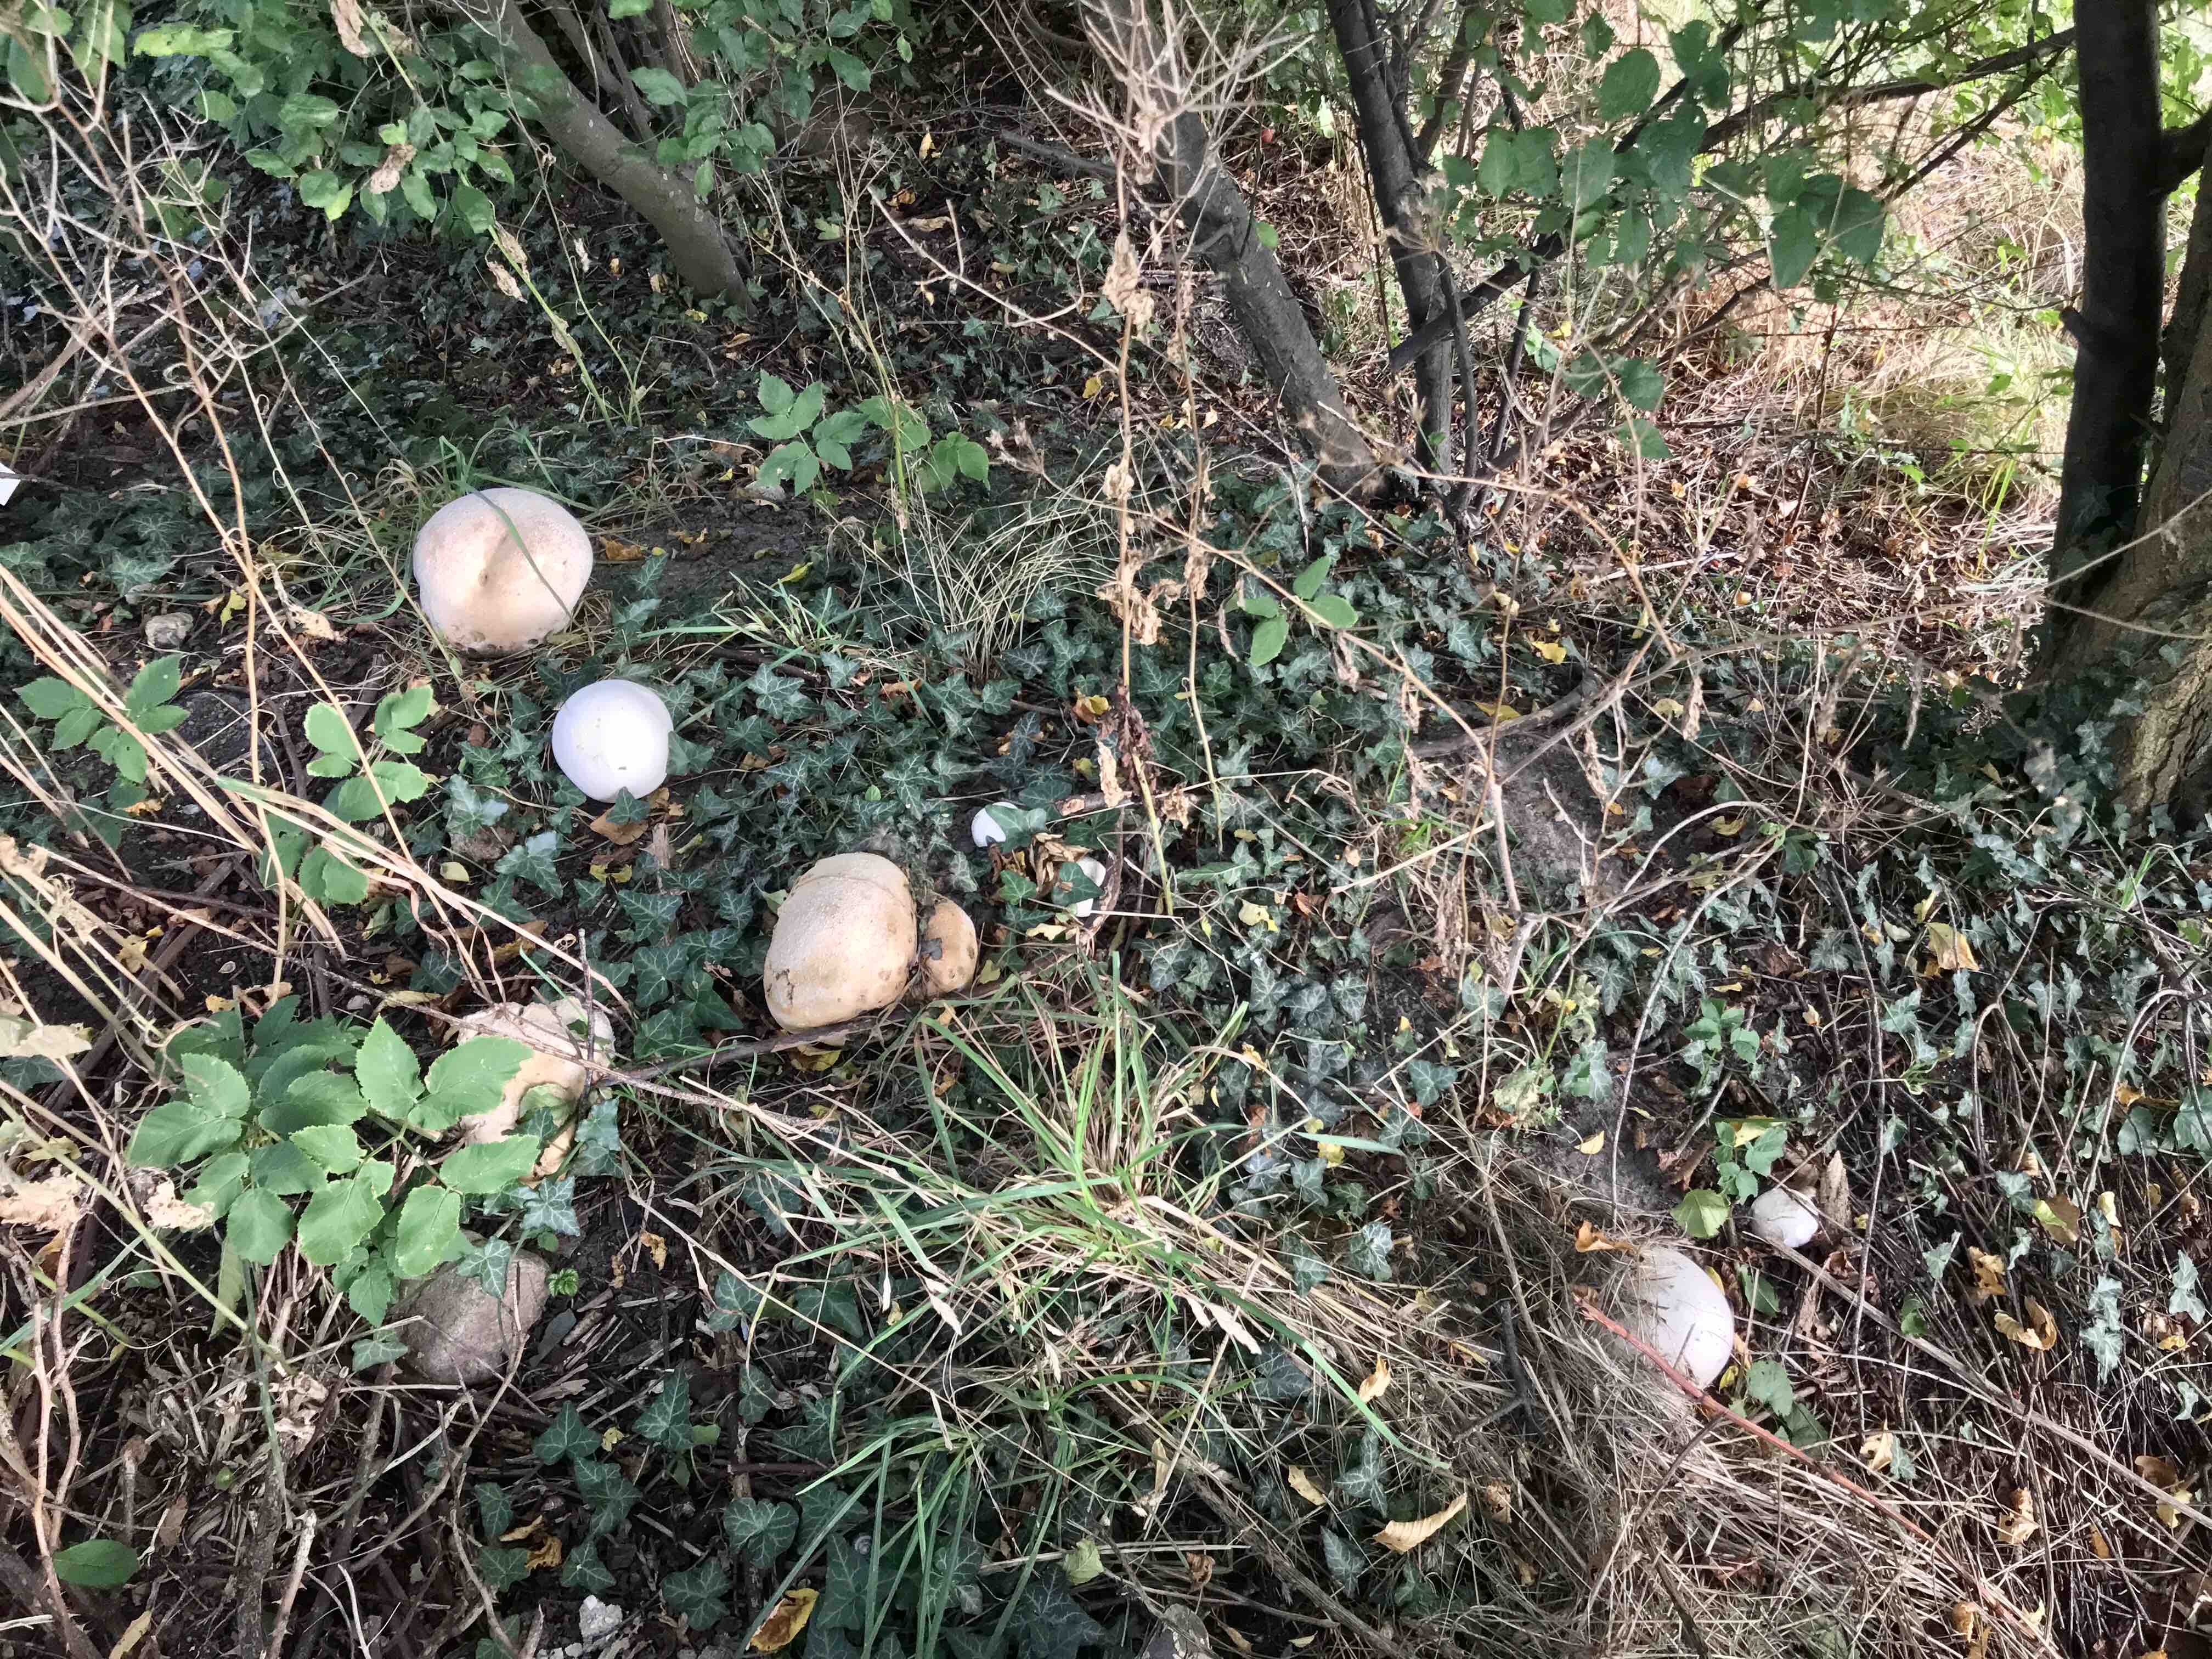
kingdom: Fungi
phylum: Basidiomycota
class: Agaricomycetes
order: Agaricales
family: Lycoperdaceae
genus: Calvatia
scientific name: Calvatia gigantea
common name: kæmpestøvbold
